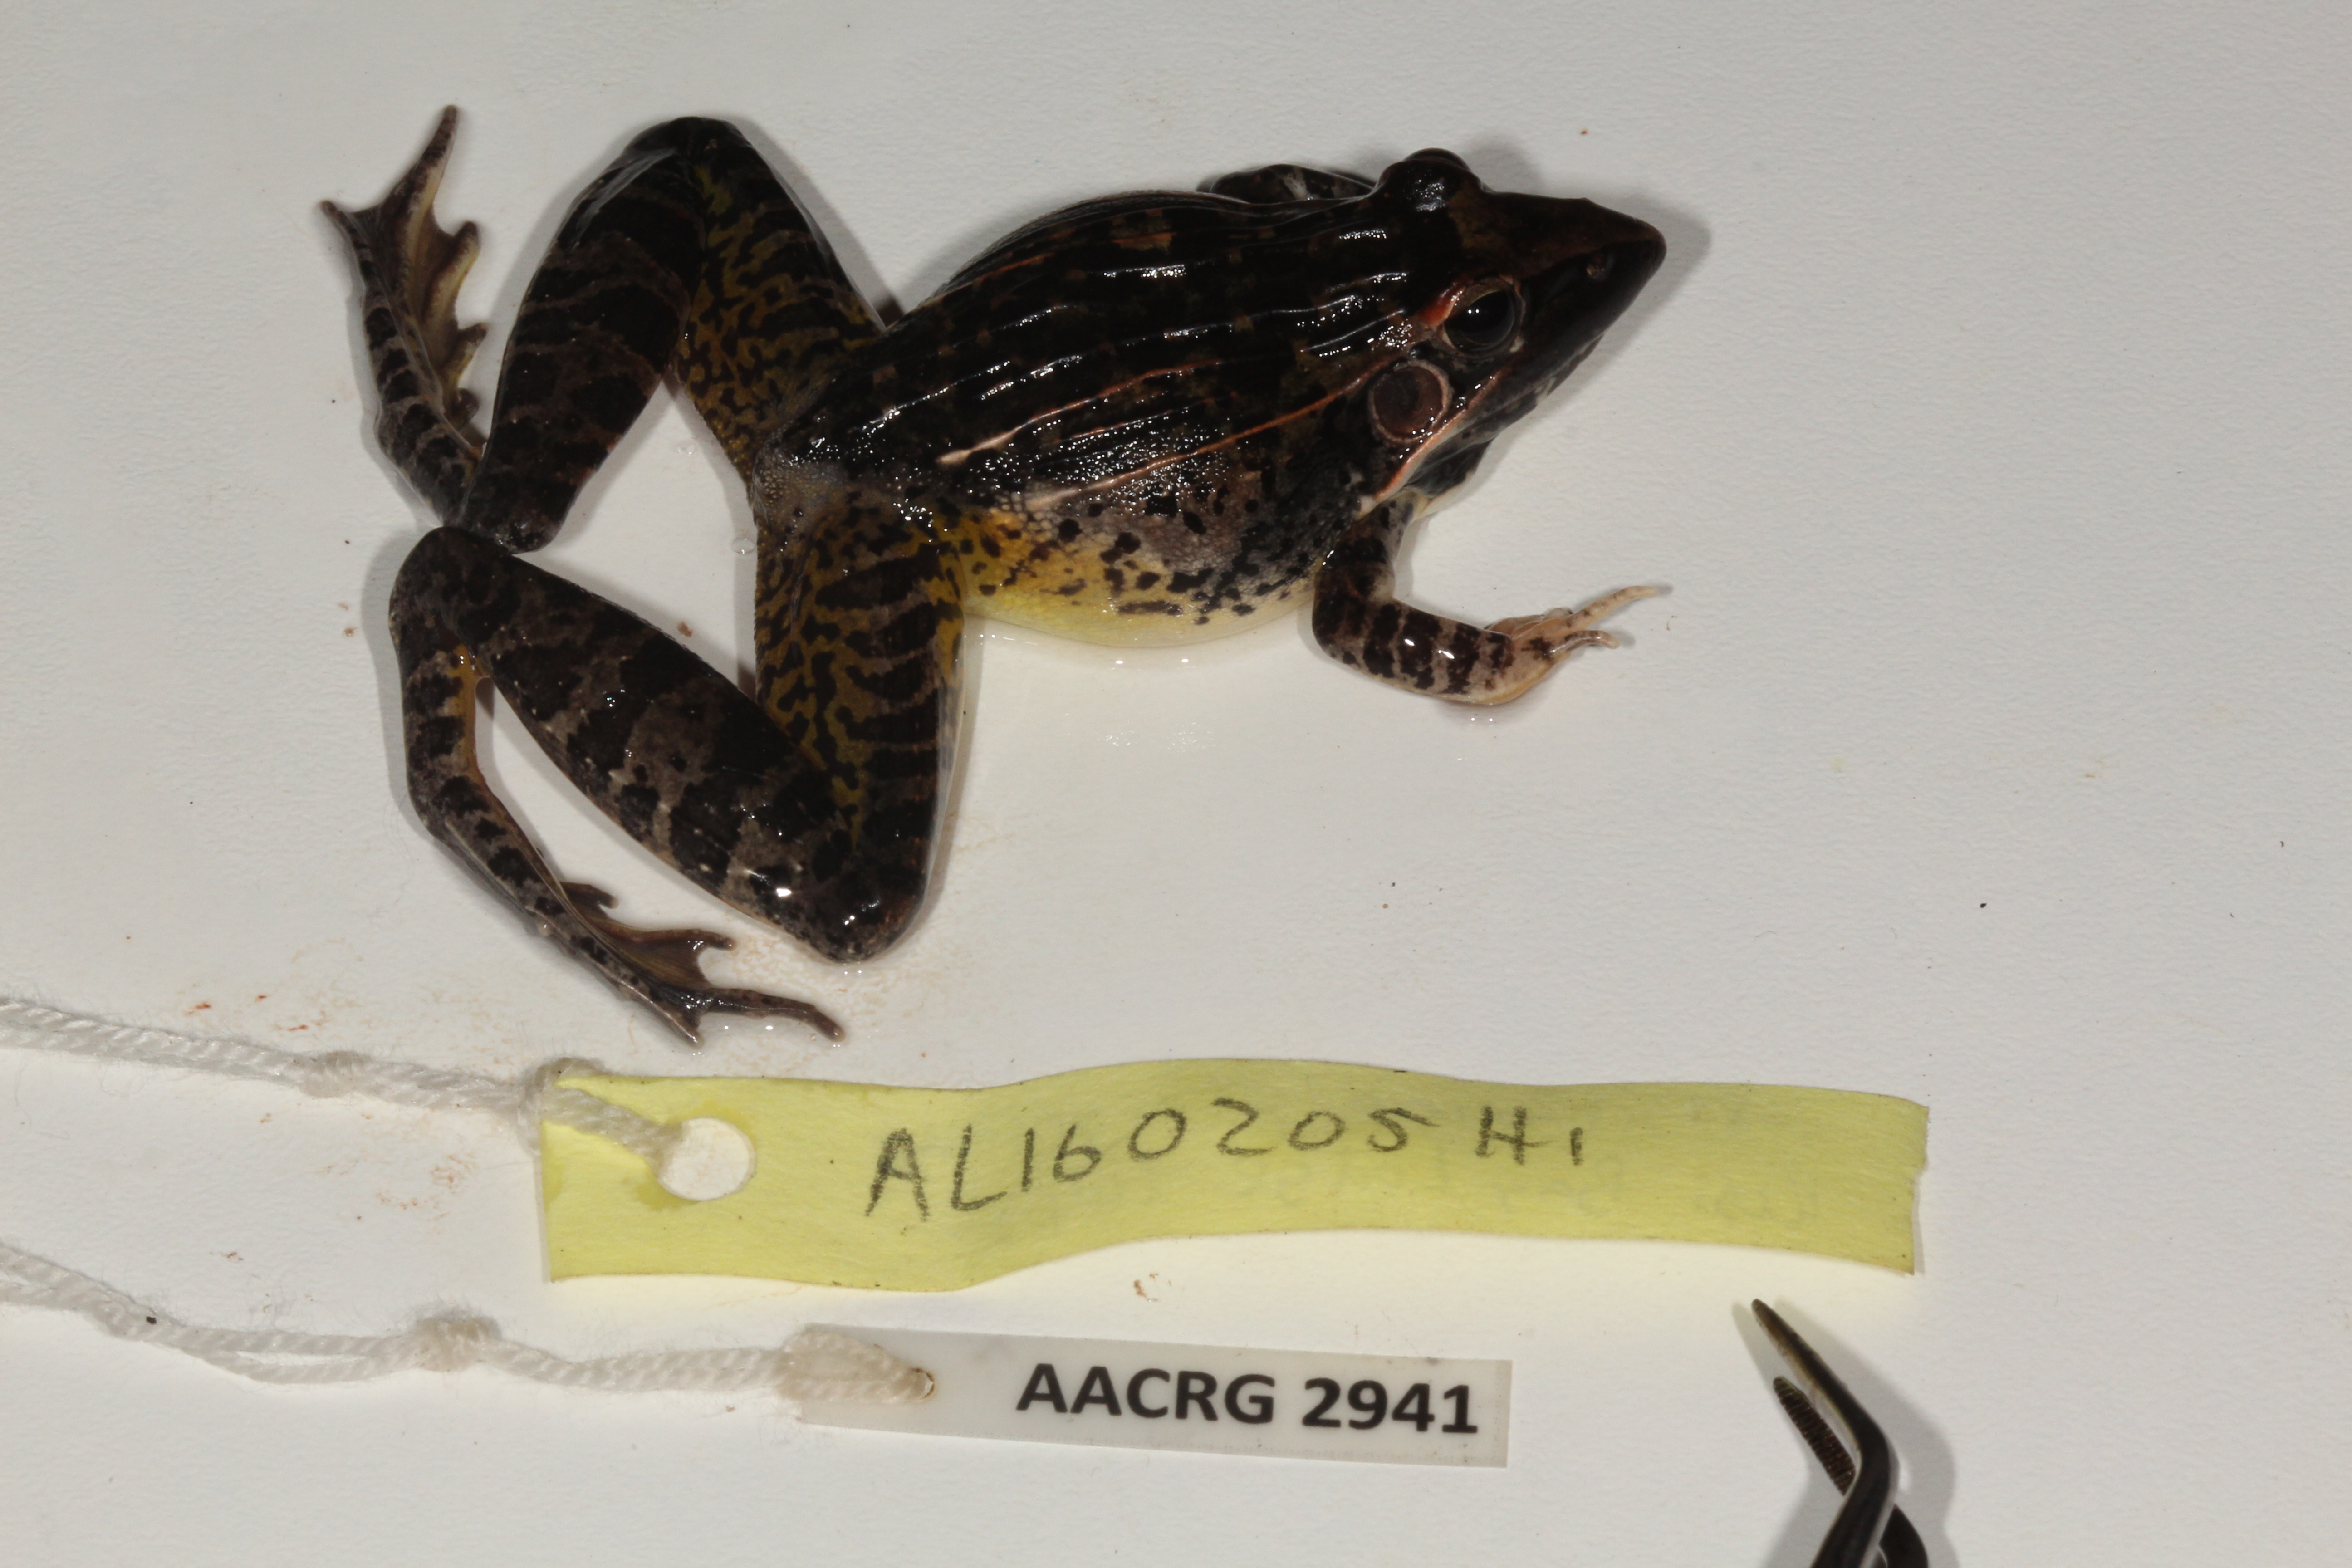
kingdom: Animalia
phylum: Chordata
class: Amphibia
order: Anura
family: Ptychadenidae
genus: Ptychadena
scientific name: Ptychadena oxyrhynchus
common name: Sharp-nosed ridged frog
